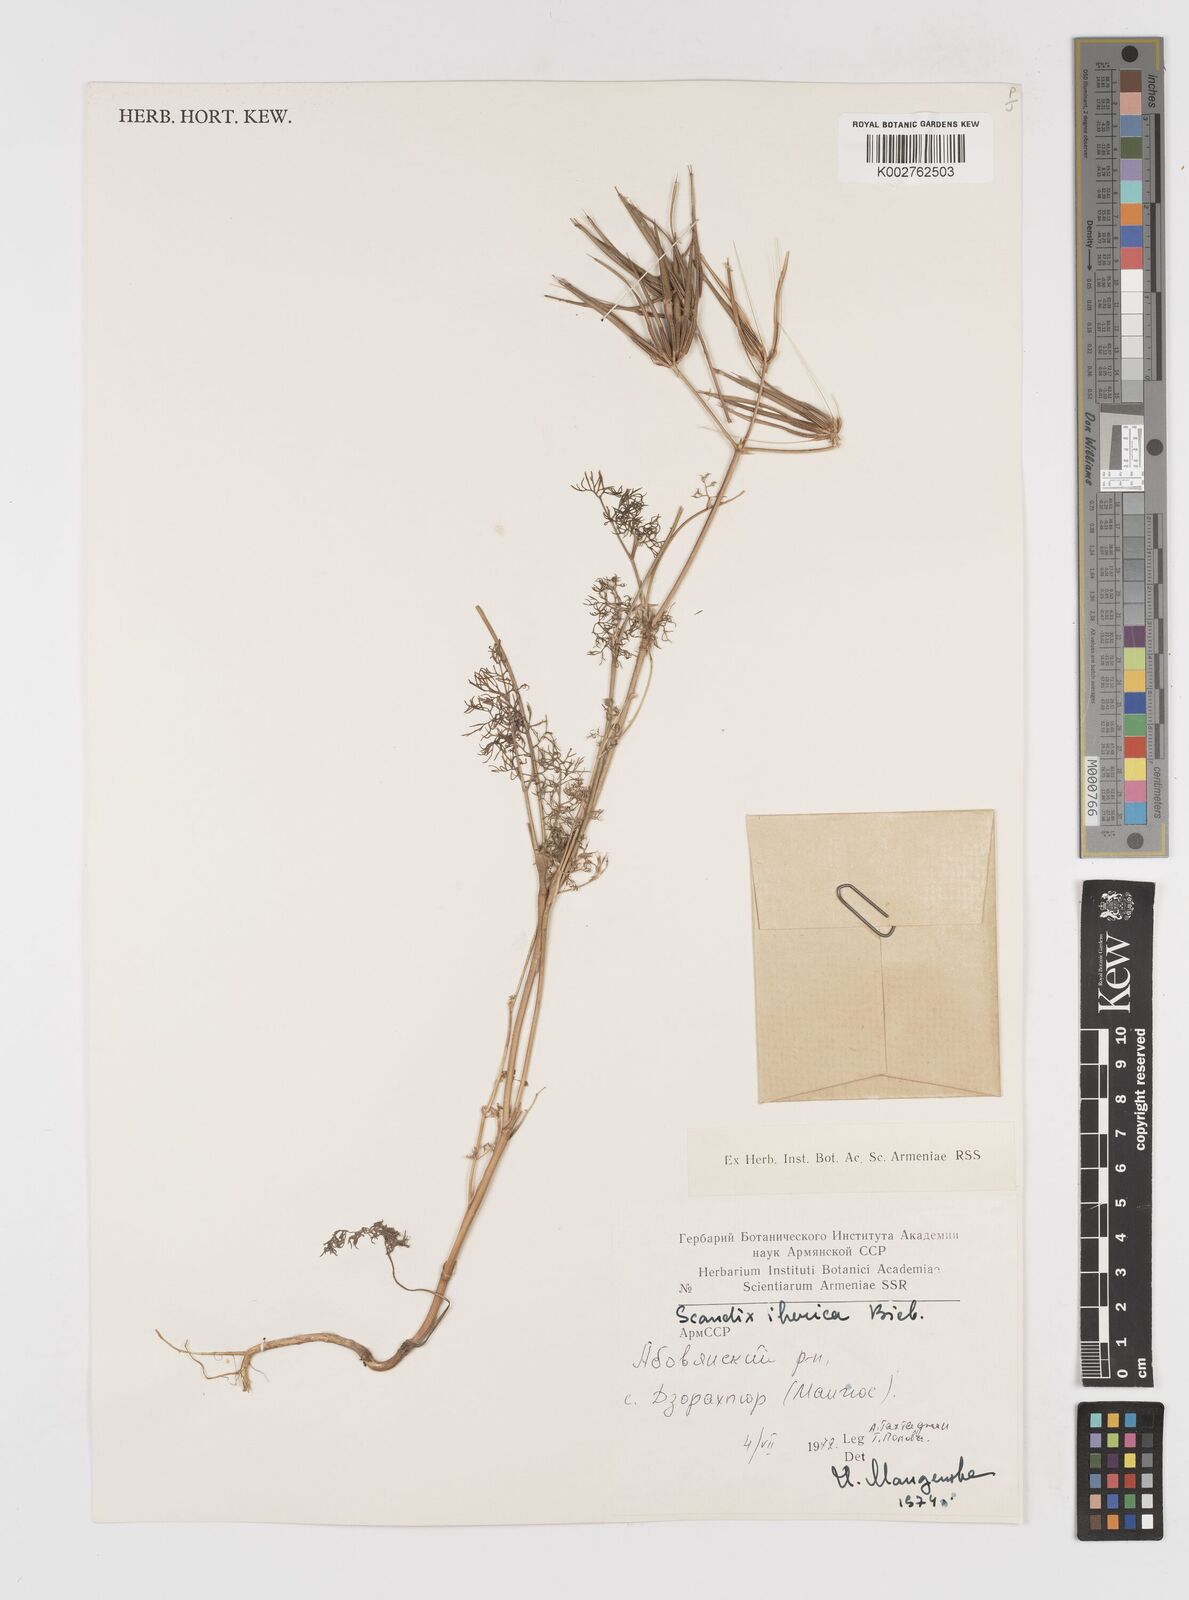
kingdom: Plantae
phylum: Tracheophyta
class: Magnoliopsida
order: Apiales
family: Apiaceae
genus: Scandix
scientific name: Scandix iberica
